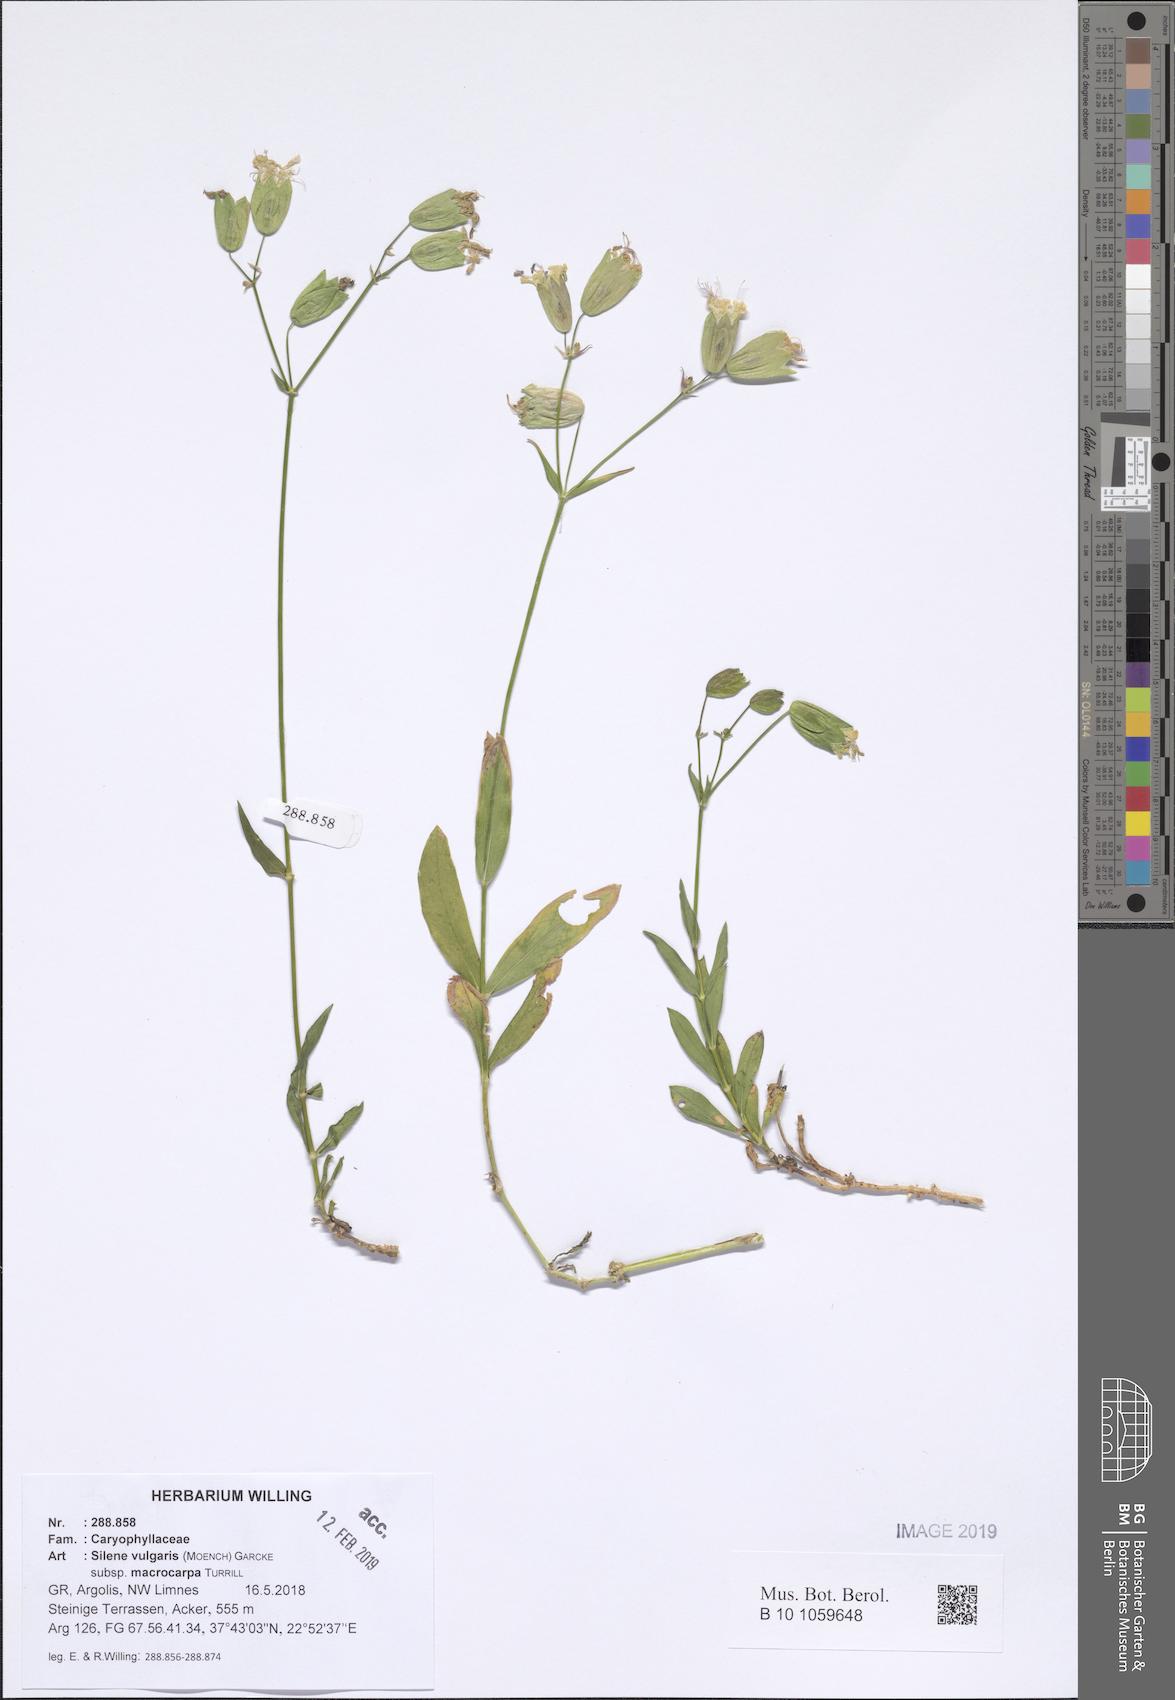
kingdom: Plantae
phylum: Tracheophyta
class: Magnoliopsida
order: Caryophyllales
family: Caryophyllaceae
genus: Silene
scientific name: Silene vulgaris
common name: Bladder campion
